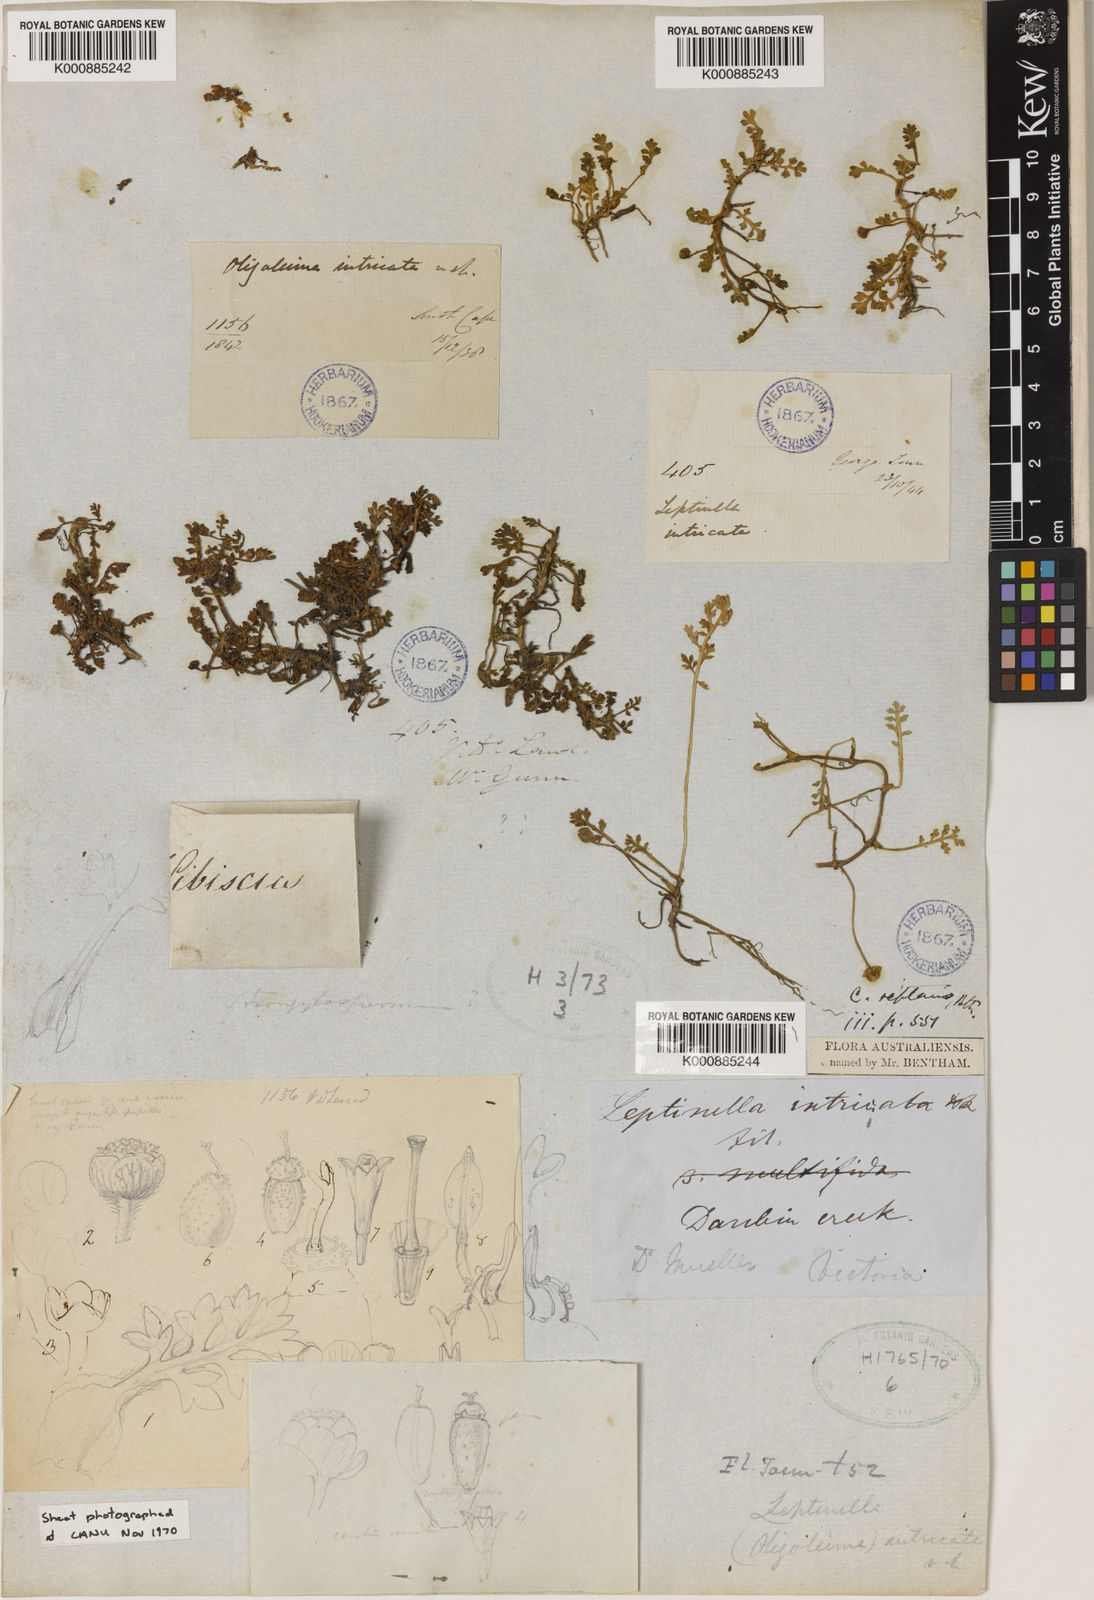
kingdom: Plantae
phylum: Tracheophyta
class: Magnoliopsida
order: Asterales
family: Asteraceae
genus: Leptinella
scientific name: Leptinella reptans
